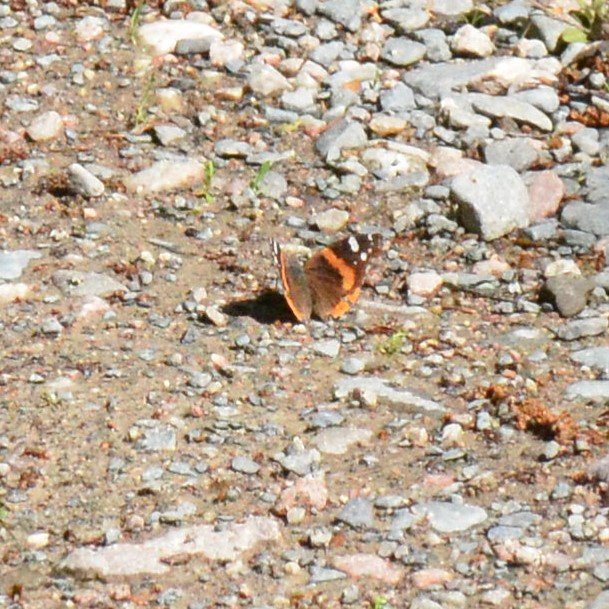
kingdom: Animalia
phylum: Arthropoda
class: Insecta
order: Lepidoptera
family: Nymphalidae
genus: Vanessa
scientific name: Vanessa atalanta
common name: Red Admiral
